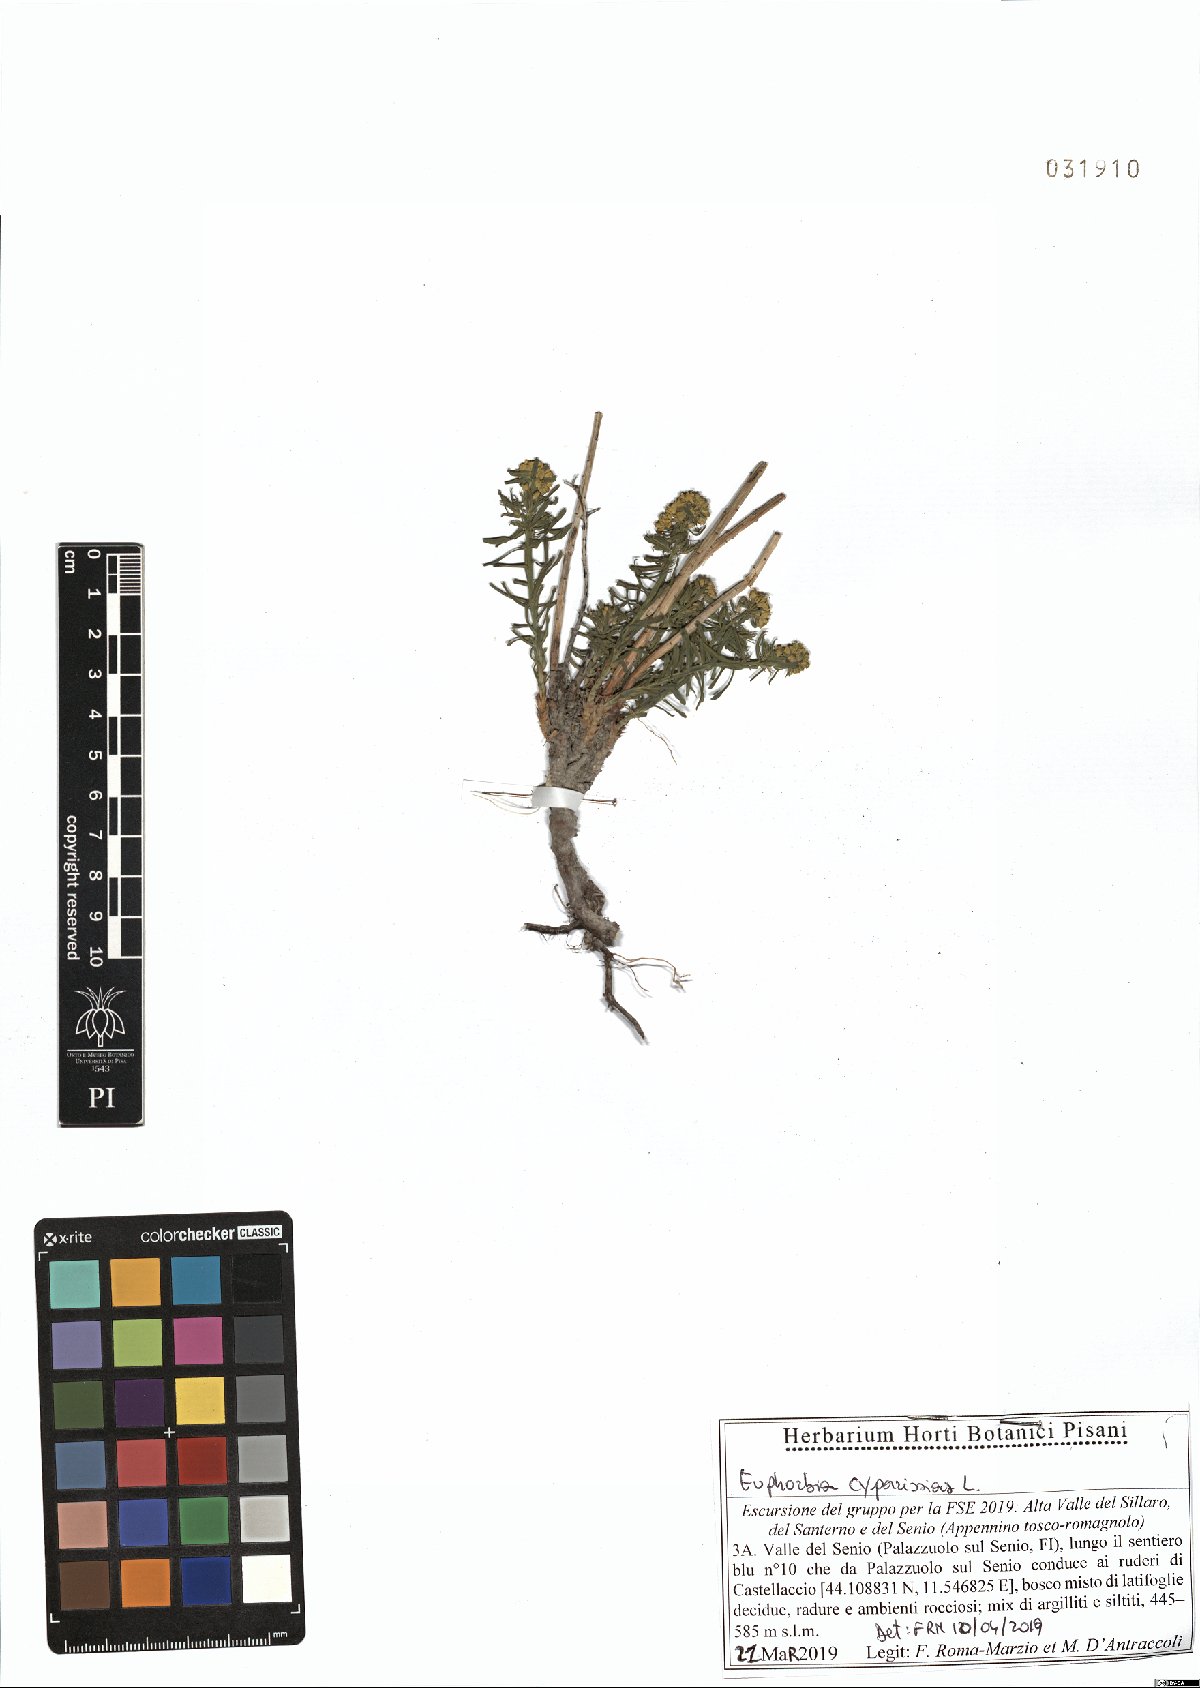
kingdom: Plantae
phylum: Tracheophyta
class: Magnoliopsida
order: Malpighiales
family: Euphorbiaceae
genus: Euphorbia
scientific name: Euphorbia cyparissias
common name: Cypress spurge
